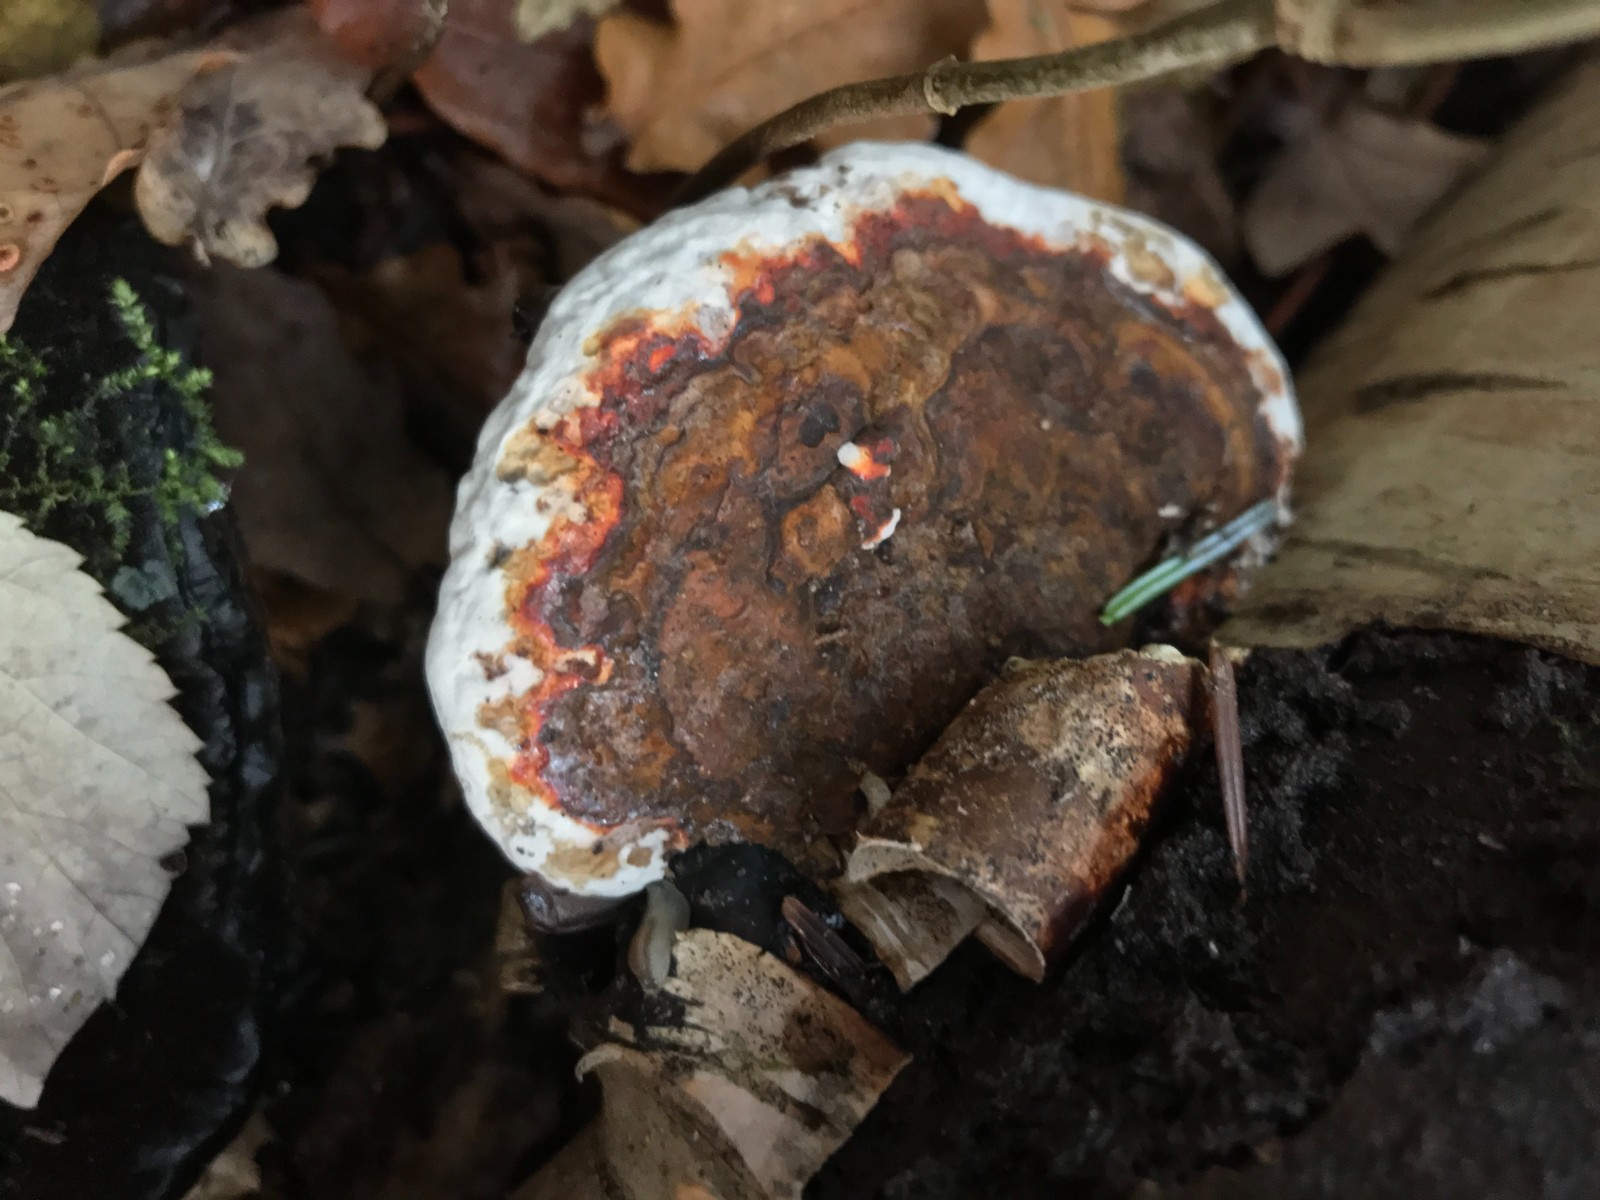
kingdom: Fungi
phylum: Basidiomycota
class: Agaricomycetes
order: Polyporales
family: Fomitopsidaceae
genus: Fomitopsis
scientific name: Fomitopsis betulina
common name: birkeporesvamp
